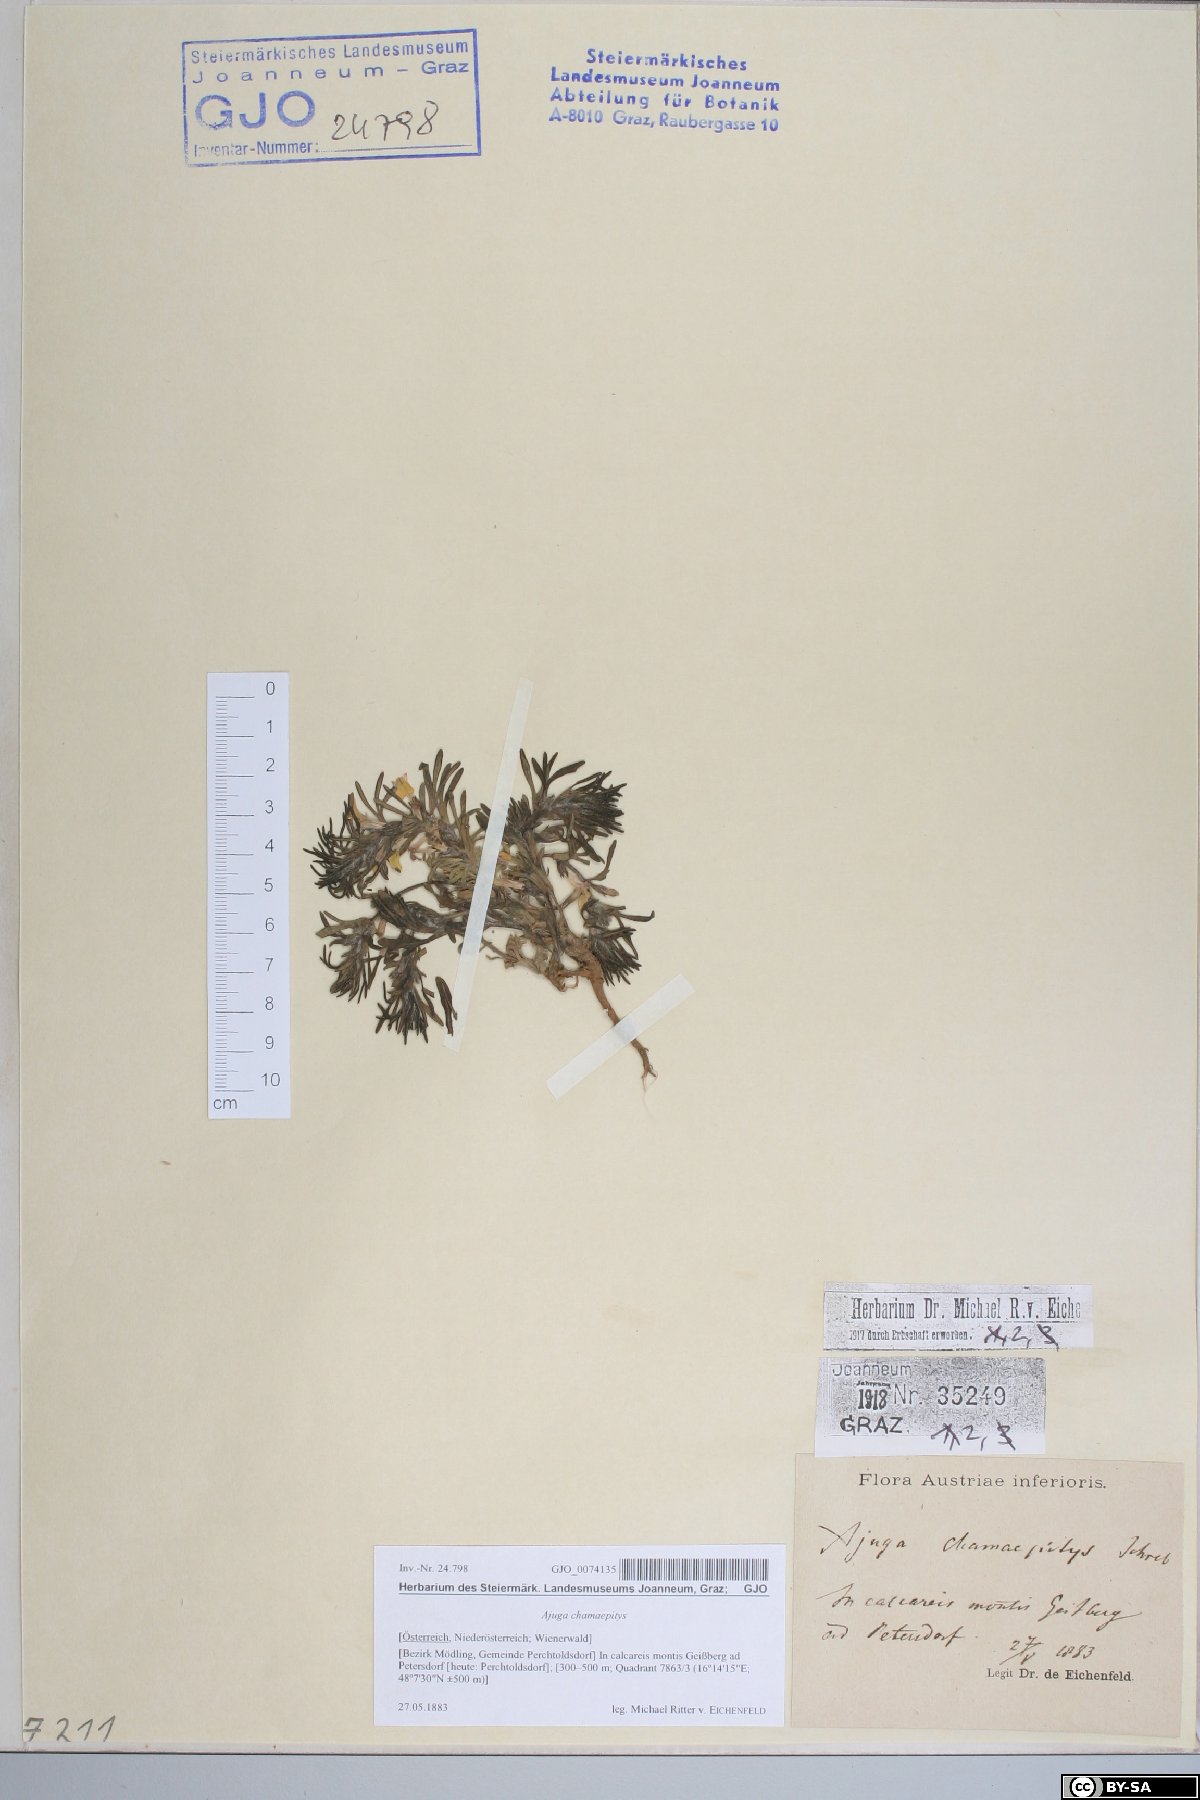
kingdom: Plantae
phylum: Tracheophyta
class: Magnoliopsida
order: Lamiales
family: Lamiaceae
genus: Ajuga
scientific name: Ajuga chamaepitys
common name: Ground-pine
